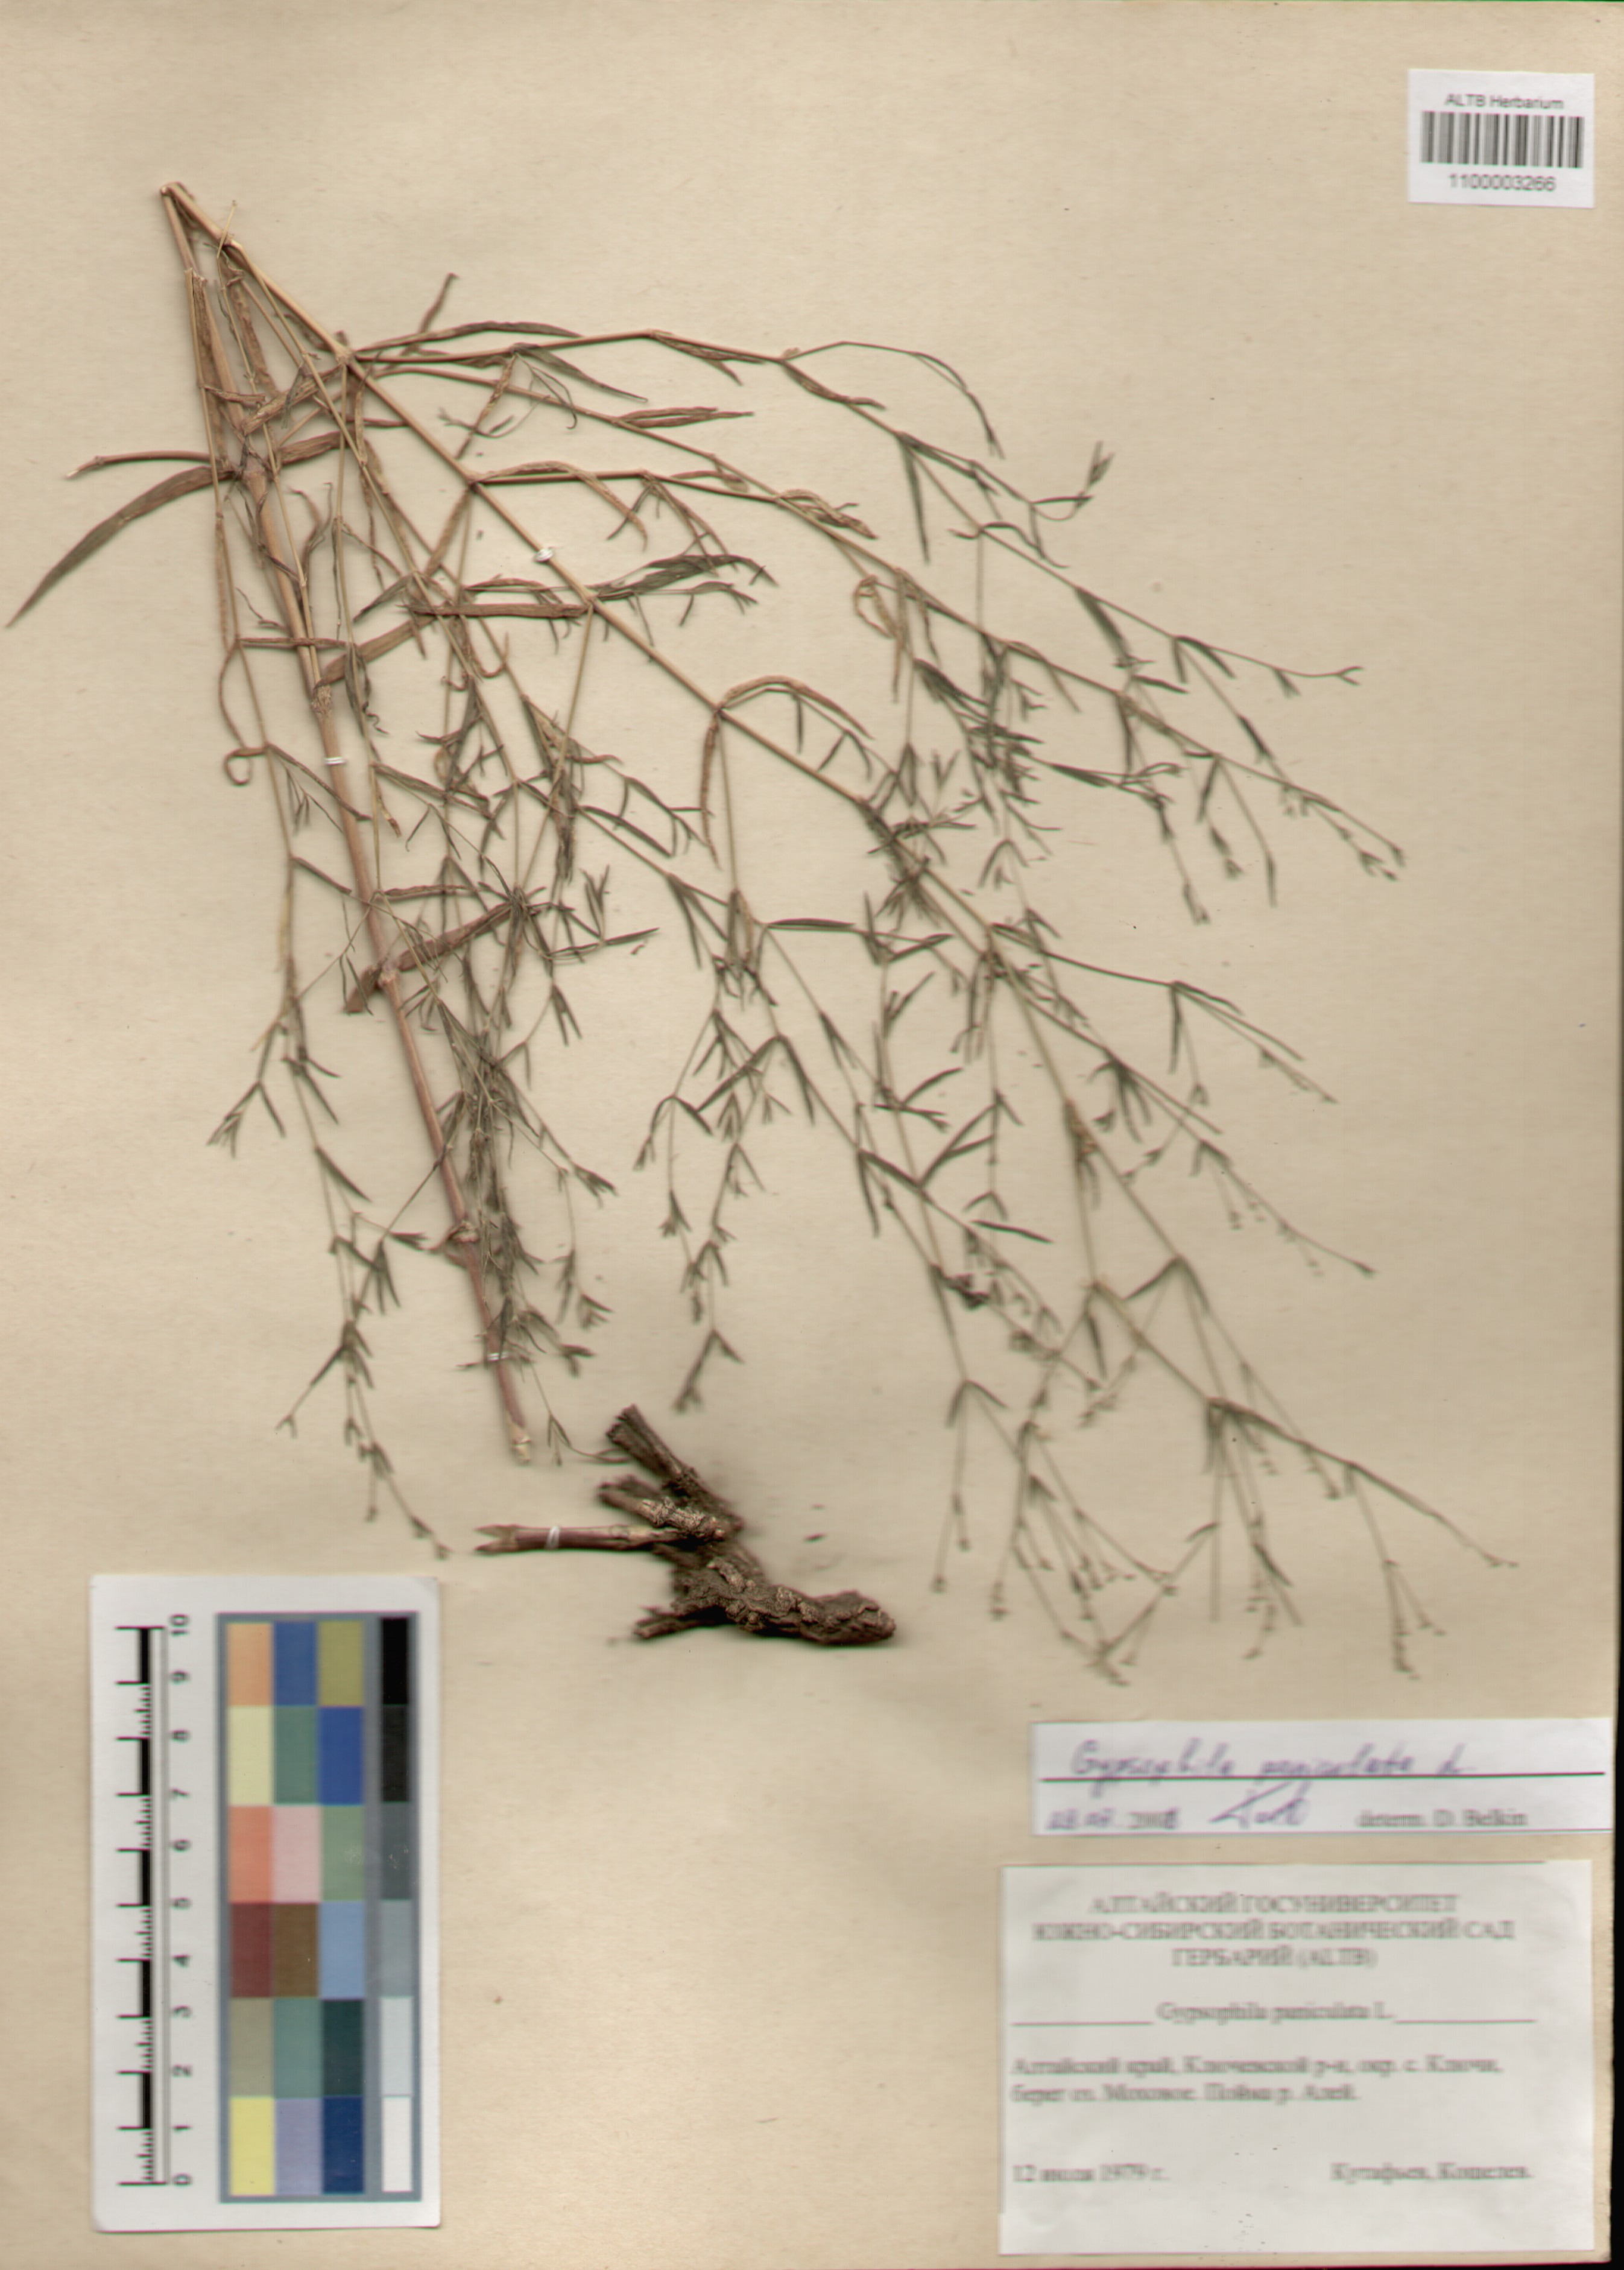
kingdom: Plantae
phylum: Tracheophyta
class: Magnoliopsida
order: Caryophyllales
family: Caryophyllaceae
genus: Gypsophila
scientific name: Gypsophila paniculata
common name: Baby's-breath
